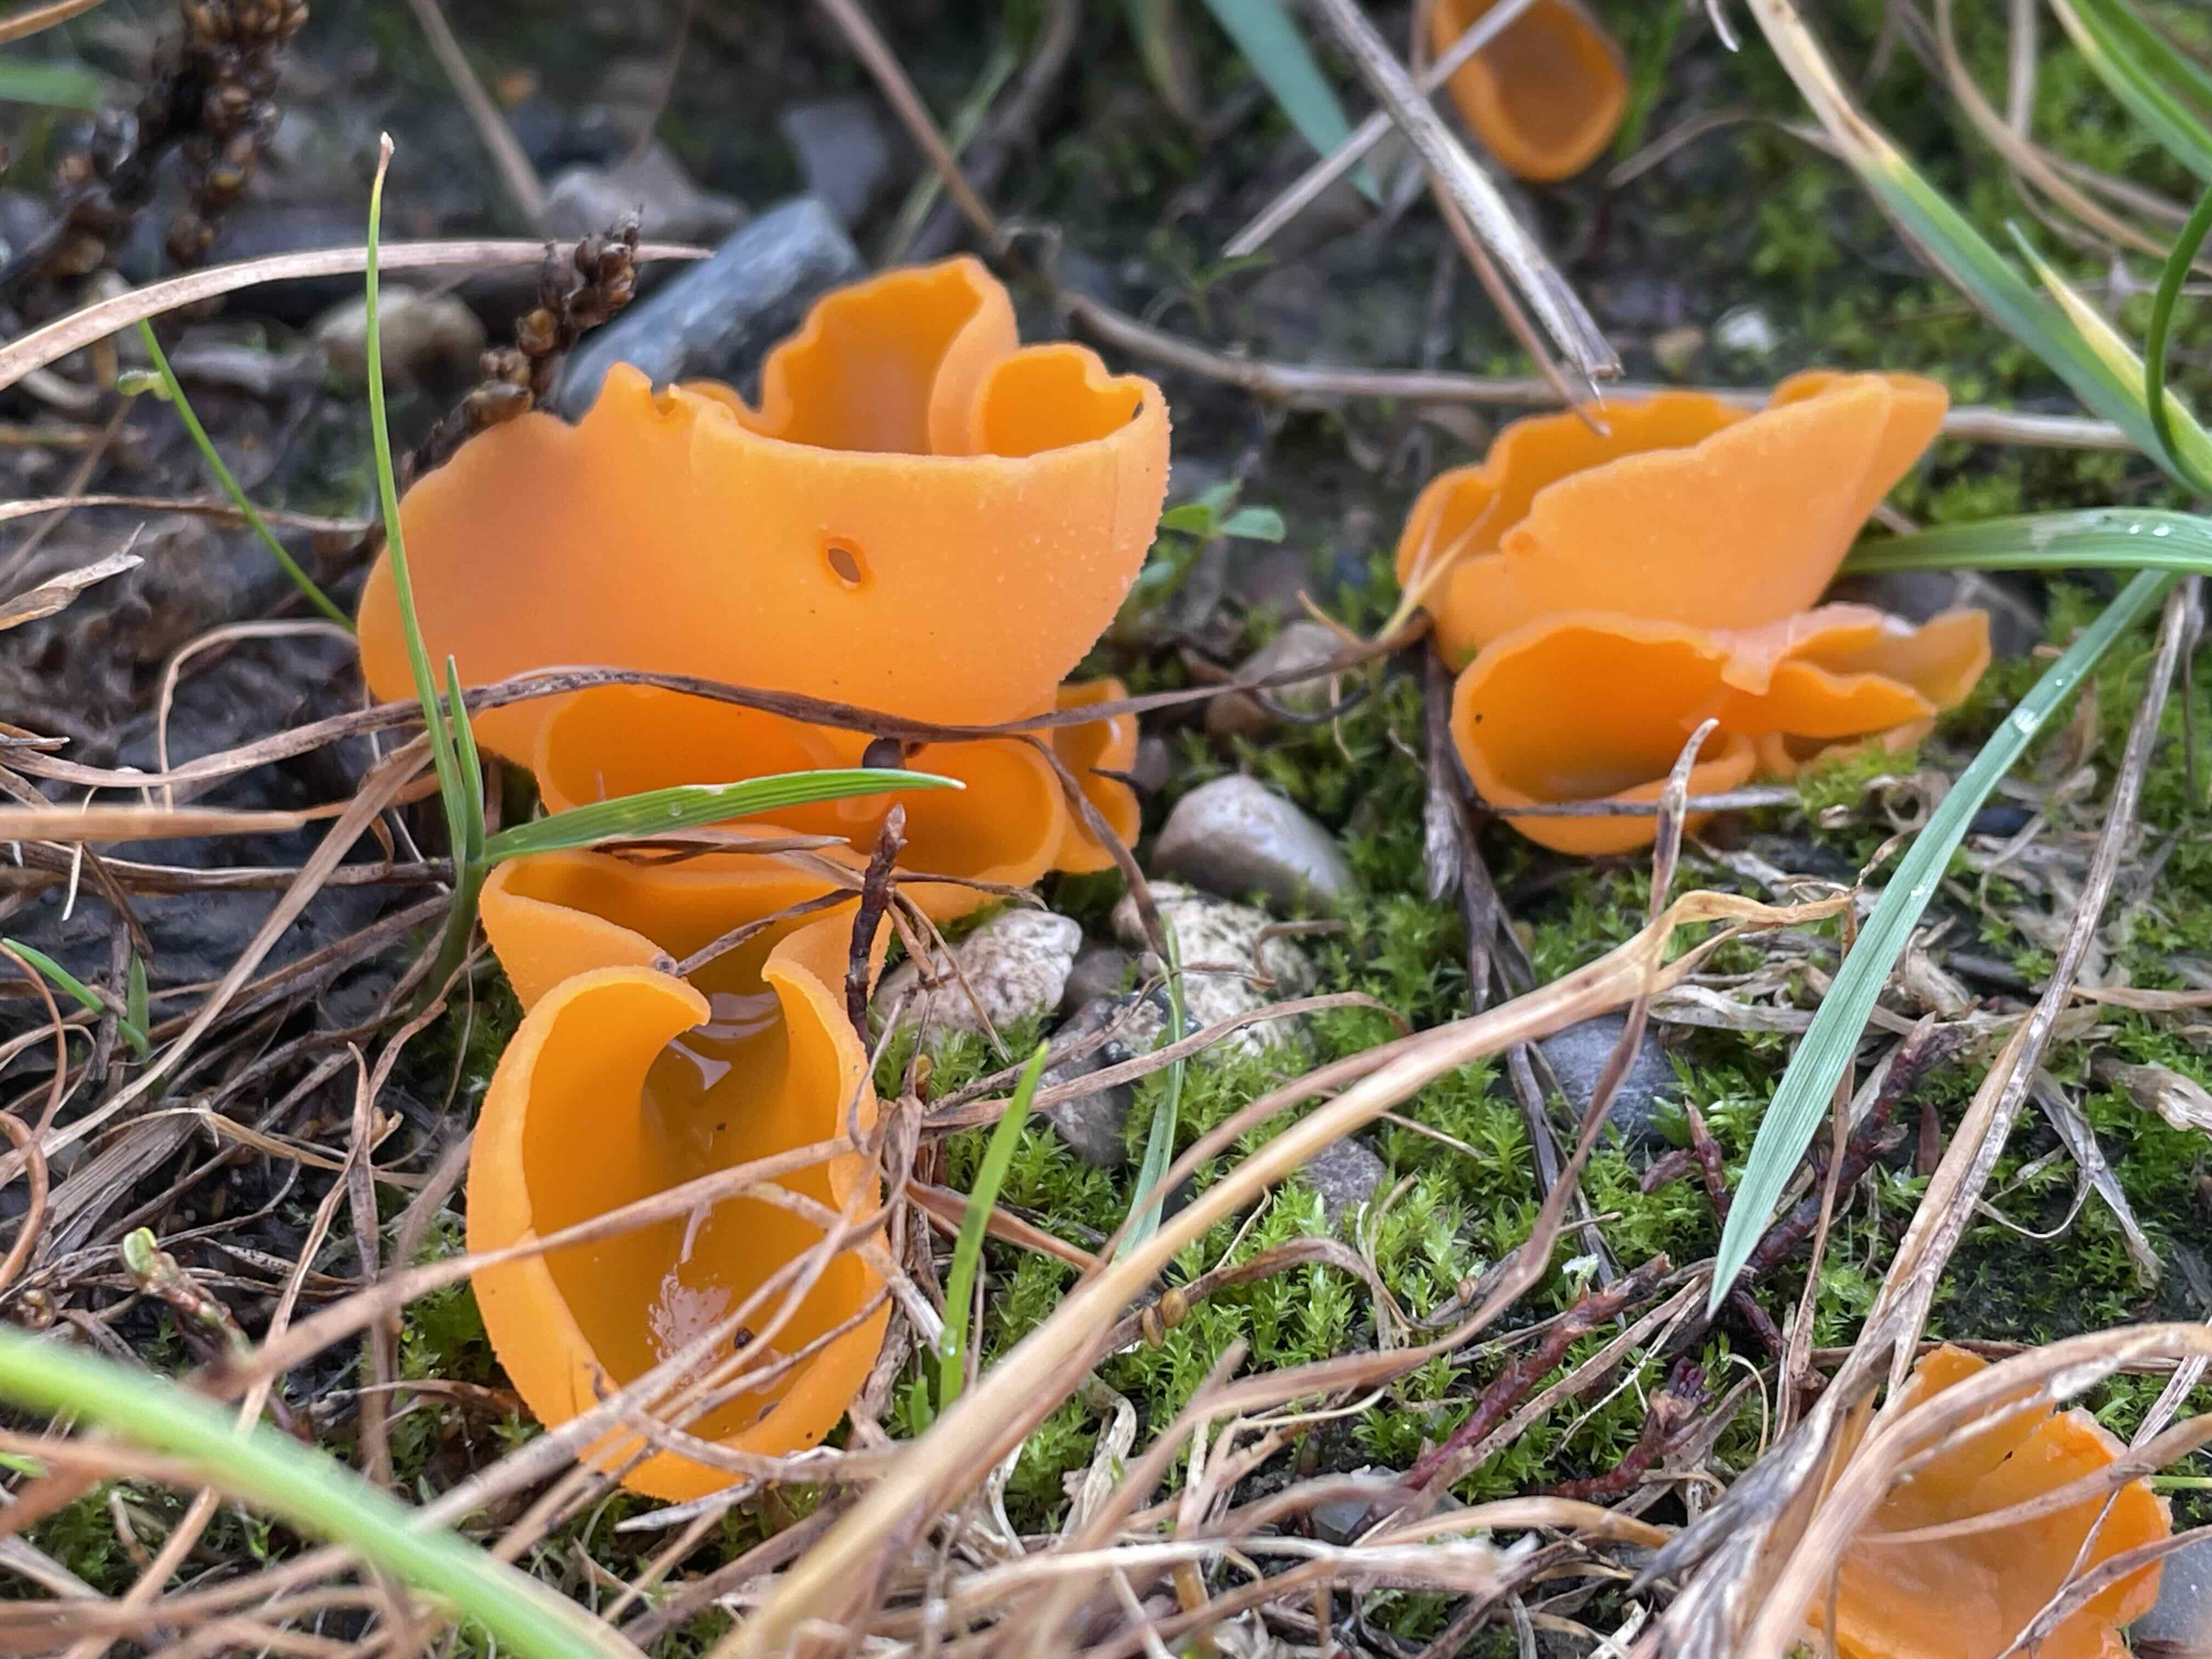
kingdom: Fungi
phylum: Ascomycota
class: Pezizomycetes
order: Pezizales
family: Pyronemataceae
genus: Aleuria
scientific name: Aleuria aurantia
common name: almindelig orangebæger
